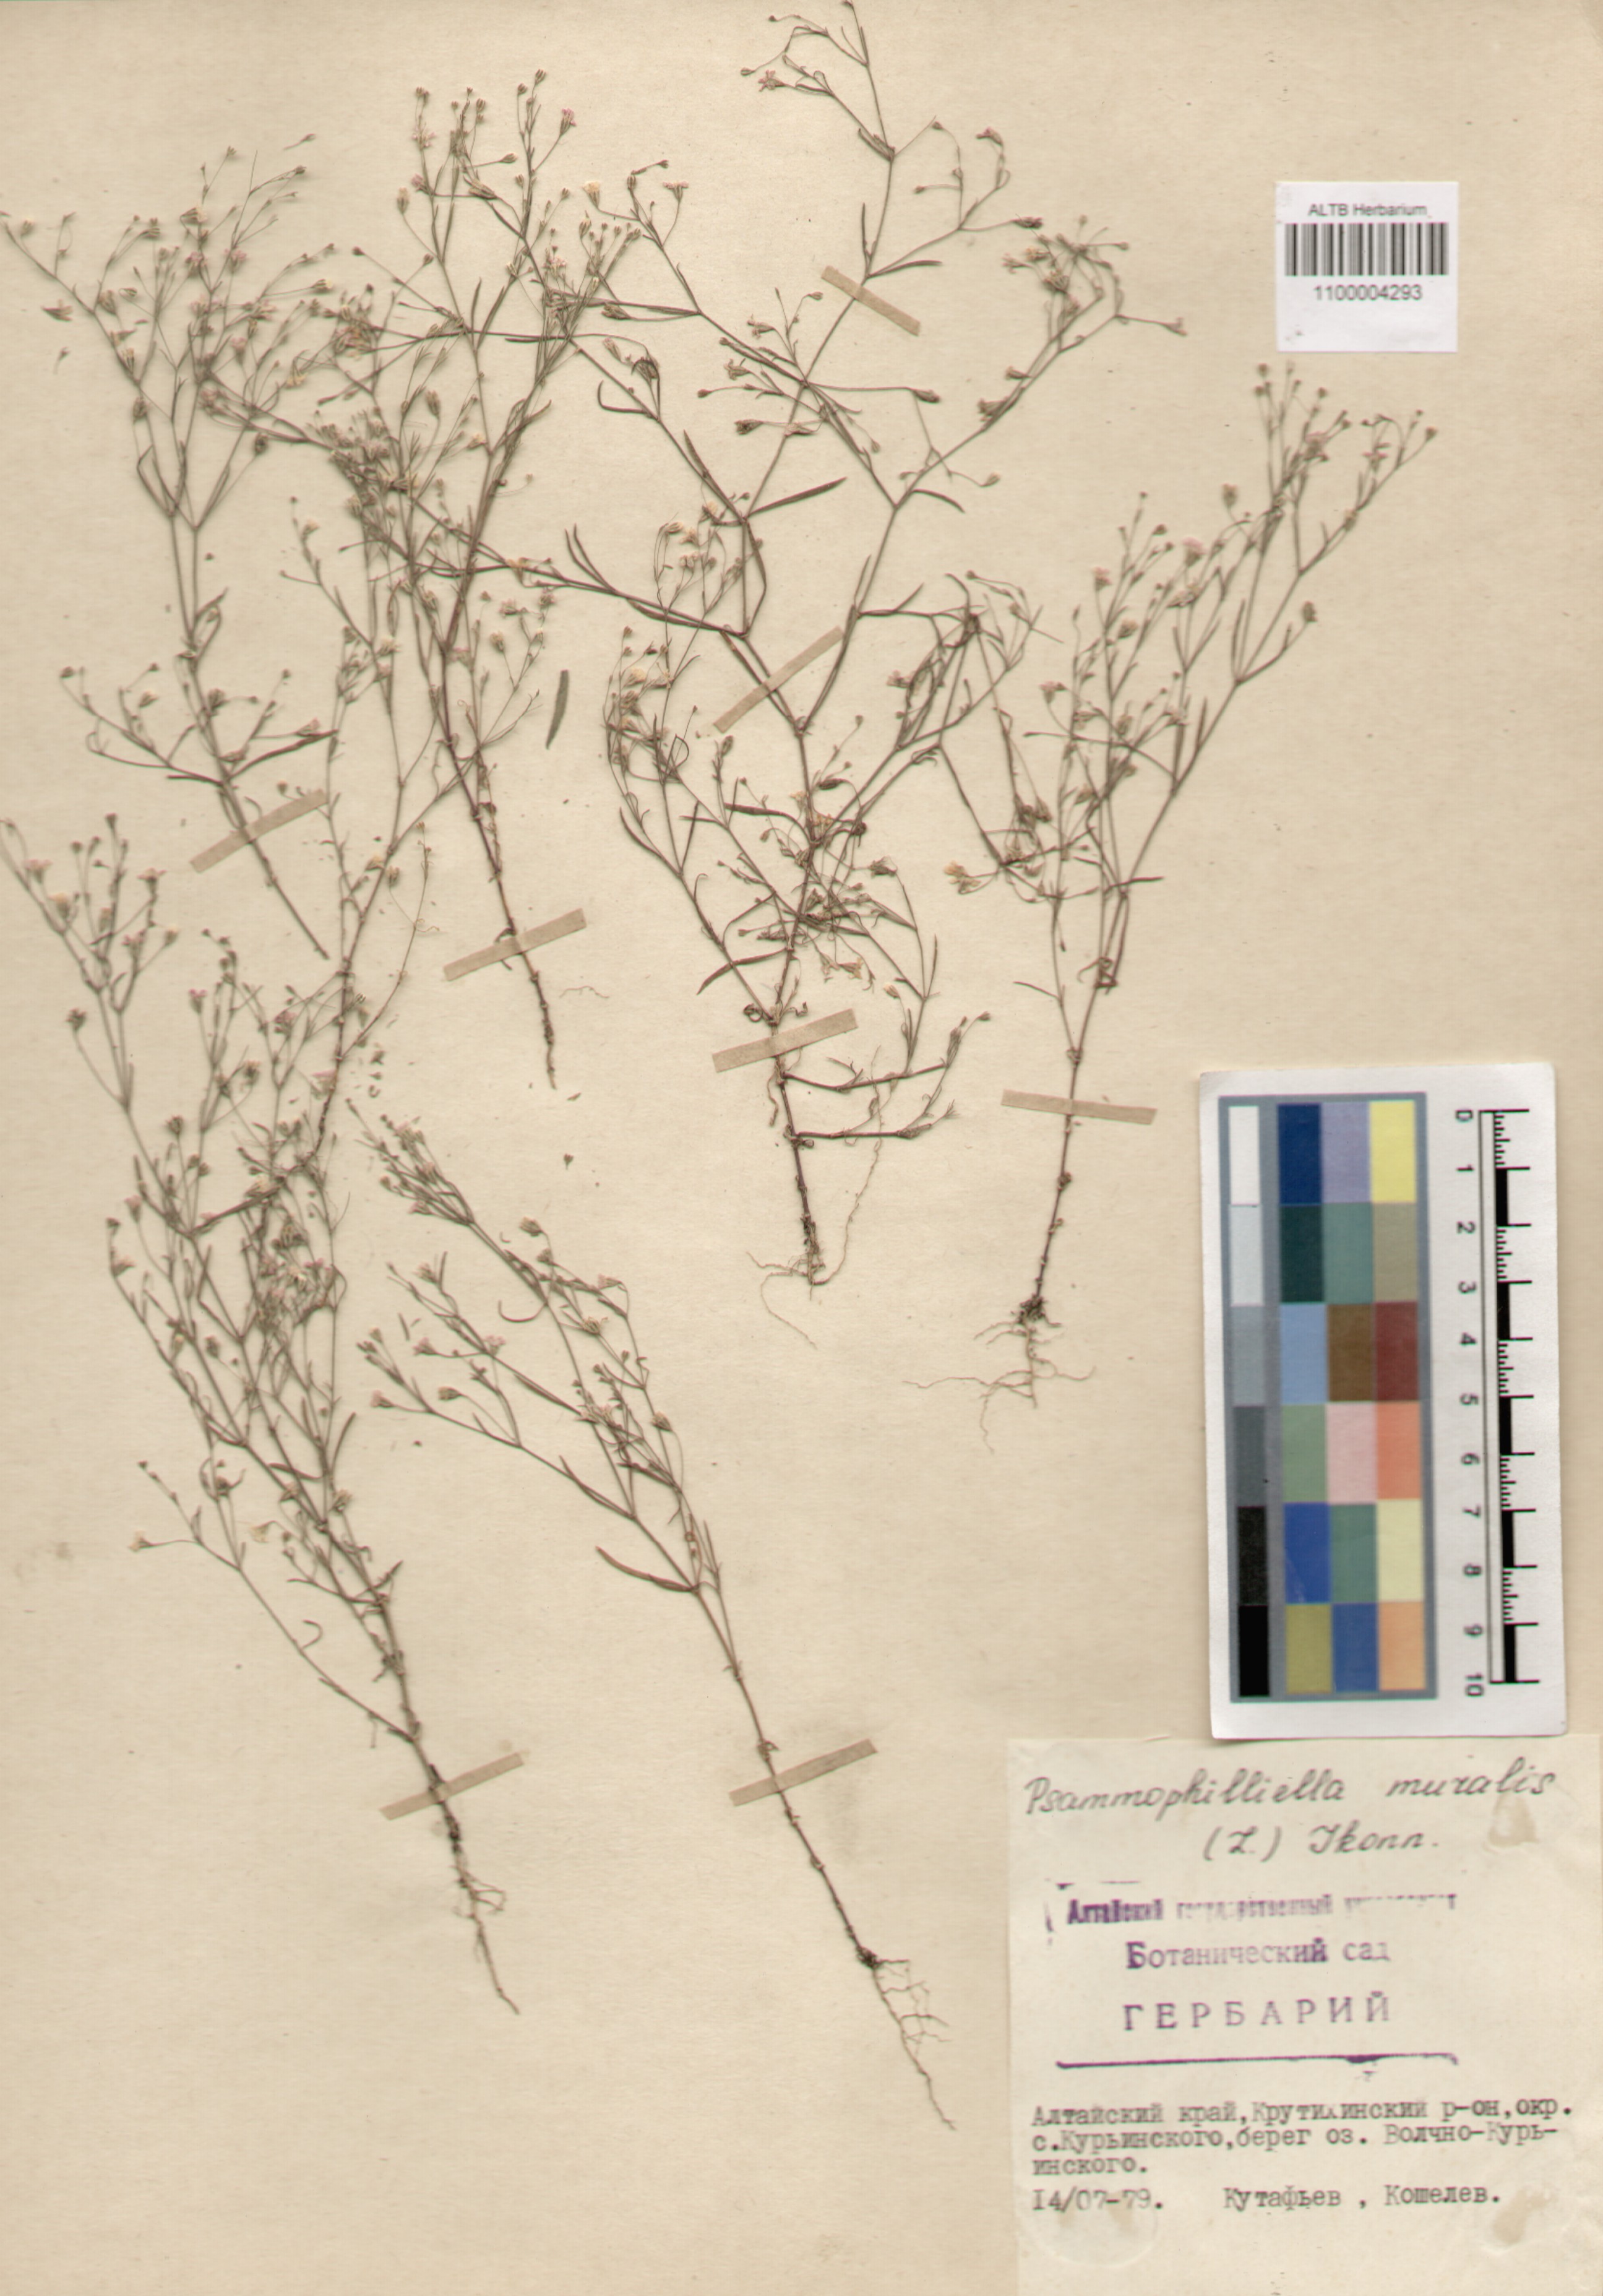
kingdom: Plantae
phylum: Tracheophyta
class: Magnoliopsida
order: Caryophyllales
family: Caryophyllaceae
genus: Psammophiliella
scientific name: Psammophiliella muralis
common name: Cushion baby's-breath
